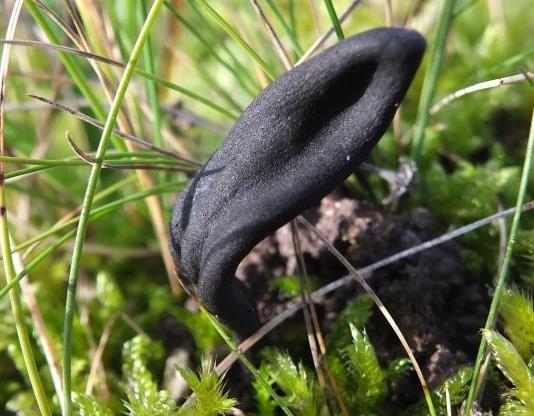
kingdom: Fungi
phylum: Ascomycota
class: Geoglossomycetes
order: Geoglossales
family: Geoglossaceae
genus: Geoglossum
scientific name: Geoglossum cookeianum
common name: bred jordtunge
